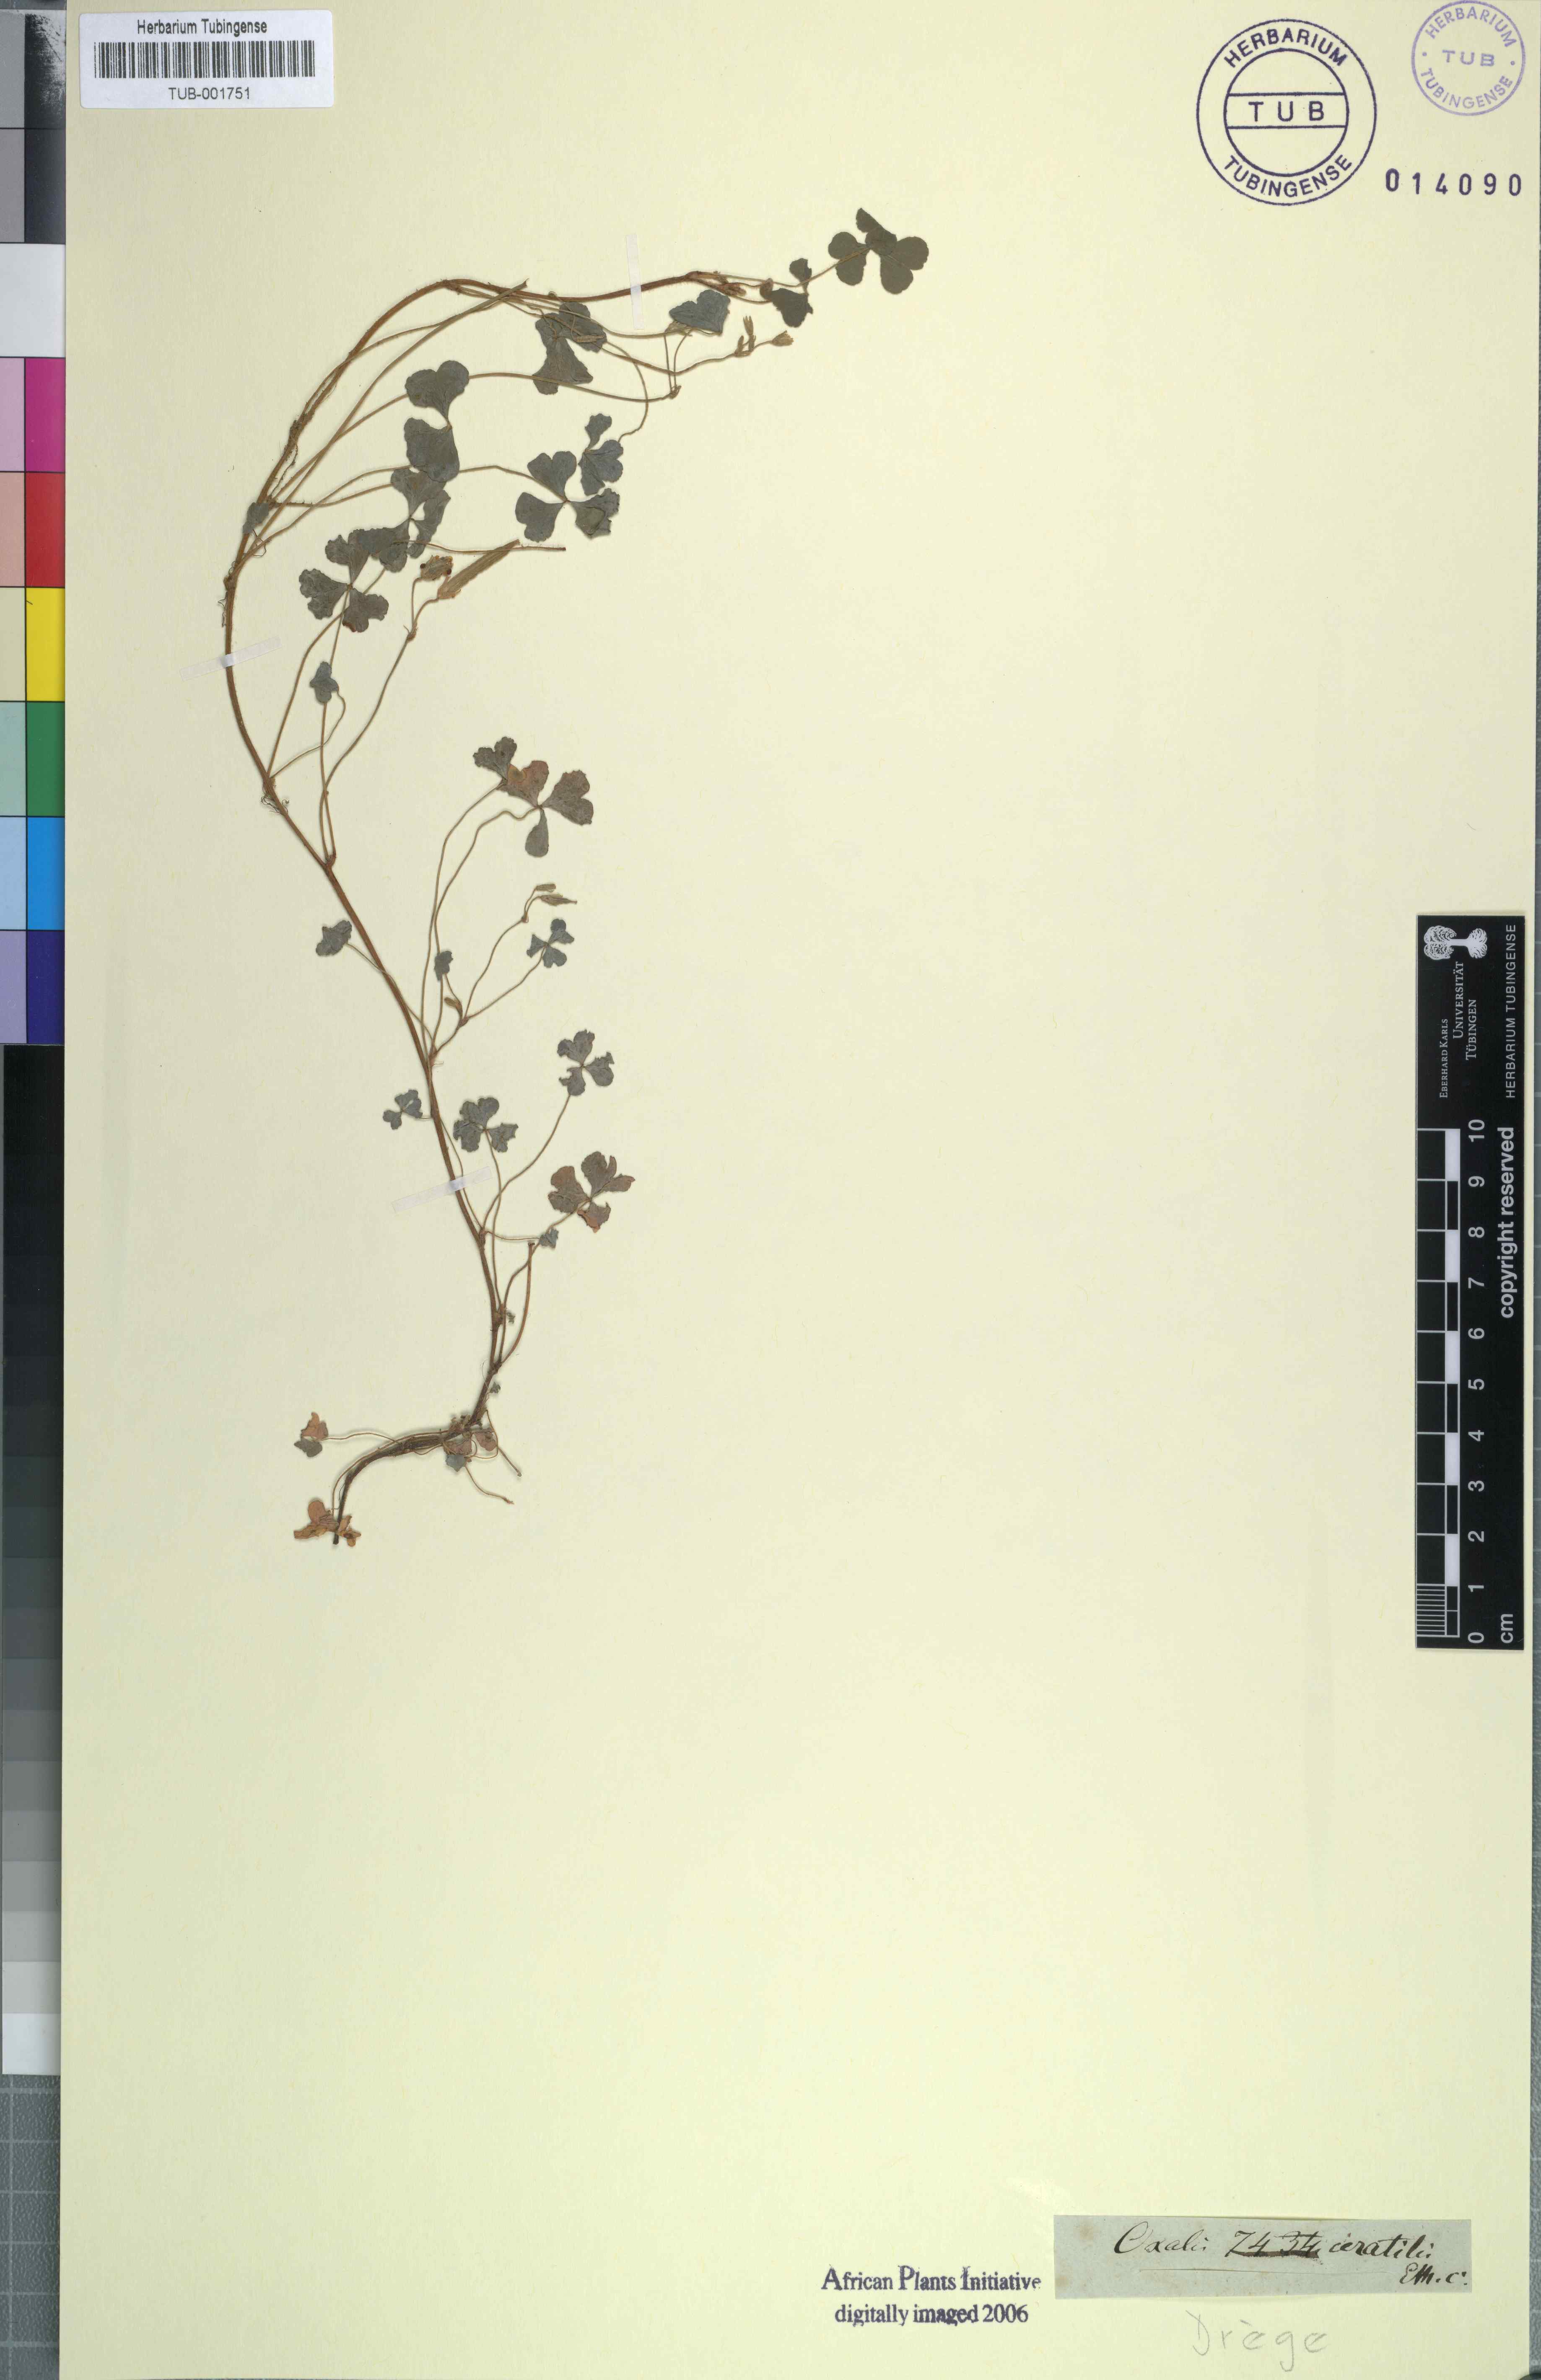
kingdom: Plantae
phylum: Tracheophyta
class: Magnoliopsida
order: Oxalidales
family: Oxalidaceae
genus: Oxalis
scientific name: Oxalis corniculata
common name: Procumbent yellow-sorrel
